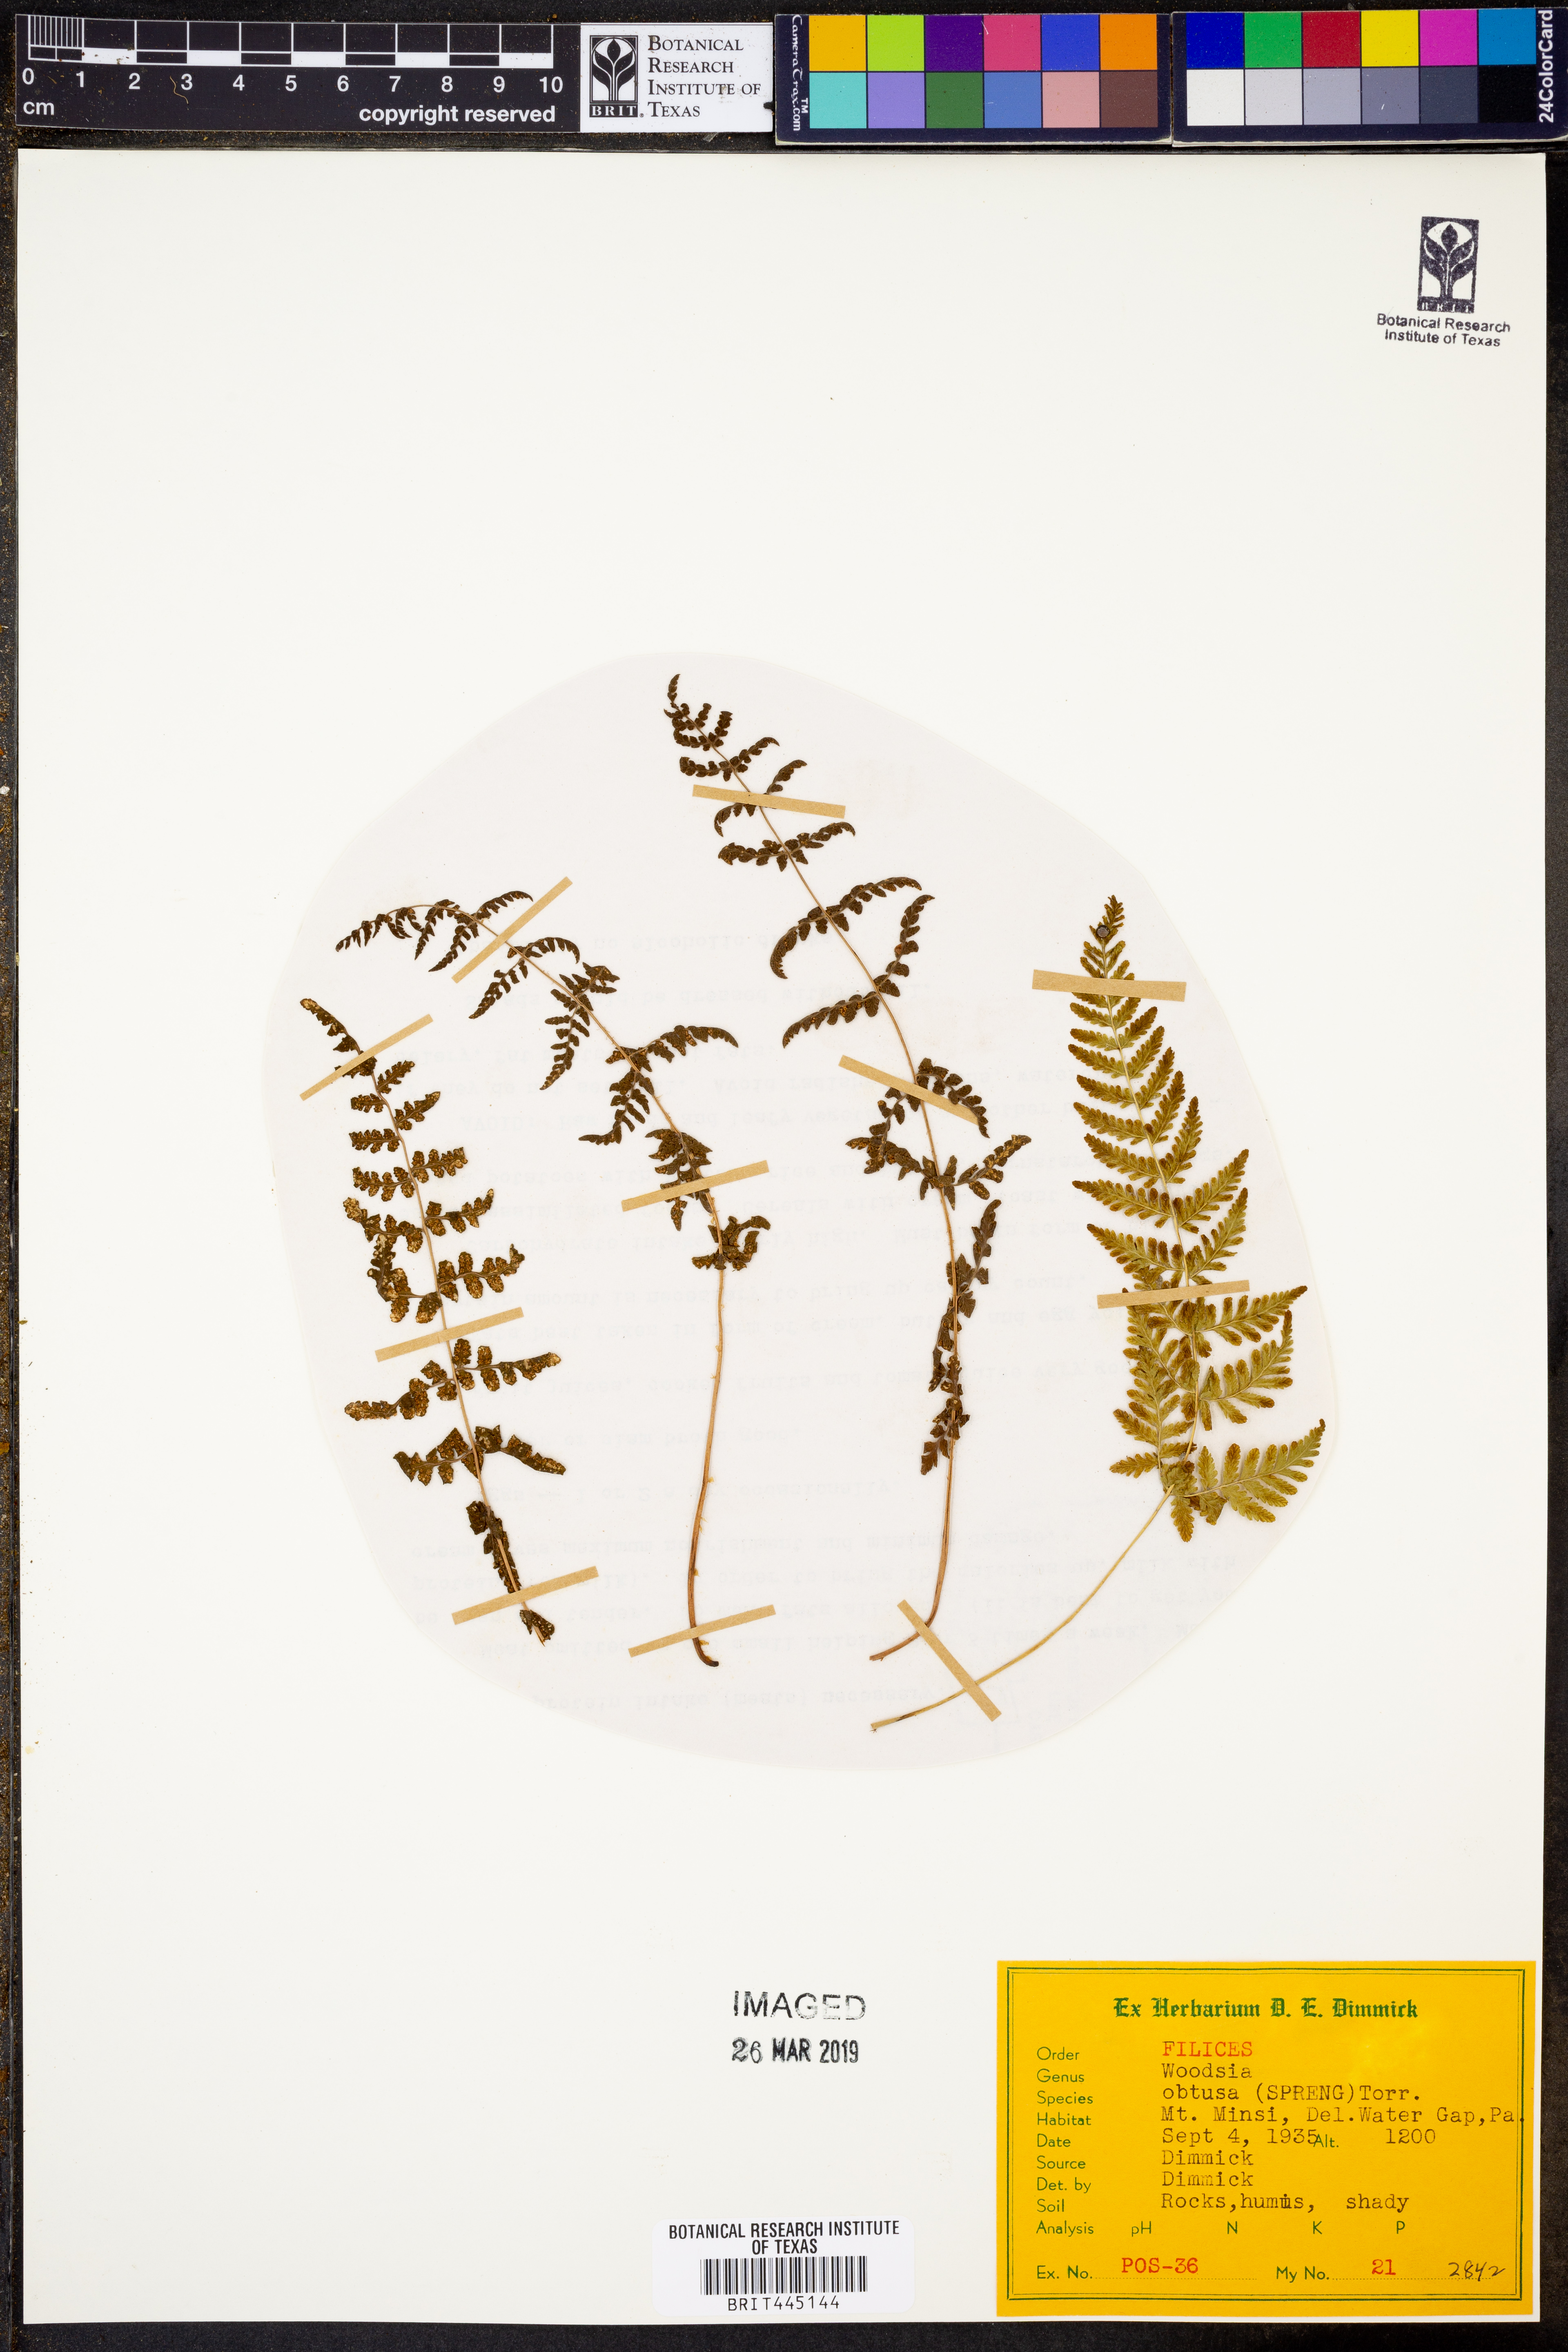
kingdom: Plantae
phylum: Tracheophyta
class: Polypodiopsida
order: Polypodiales
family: Woodsiaceae
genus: Physematium
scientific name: Physematium obtusum
